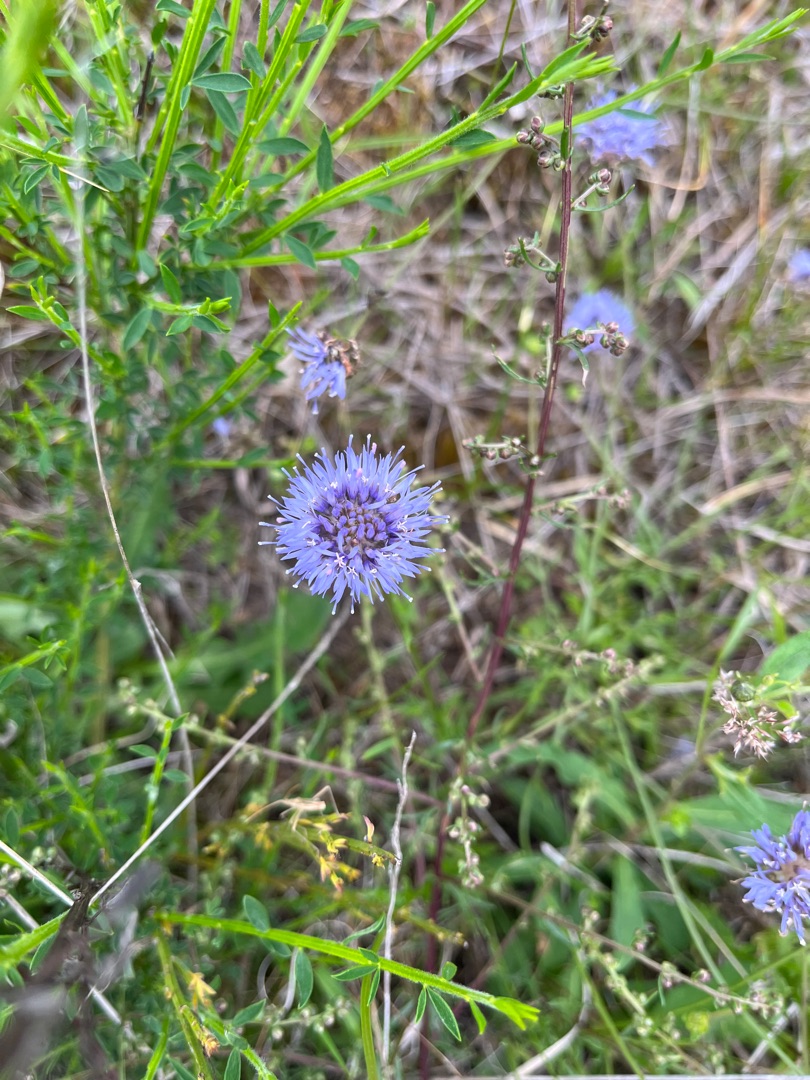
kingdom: Plantae
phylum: Tracheophyta
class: Magnoliopsida
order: Asterales
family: Campanulaceae
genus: Jasione
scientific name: Jasione montana
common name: Blåmunke
